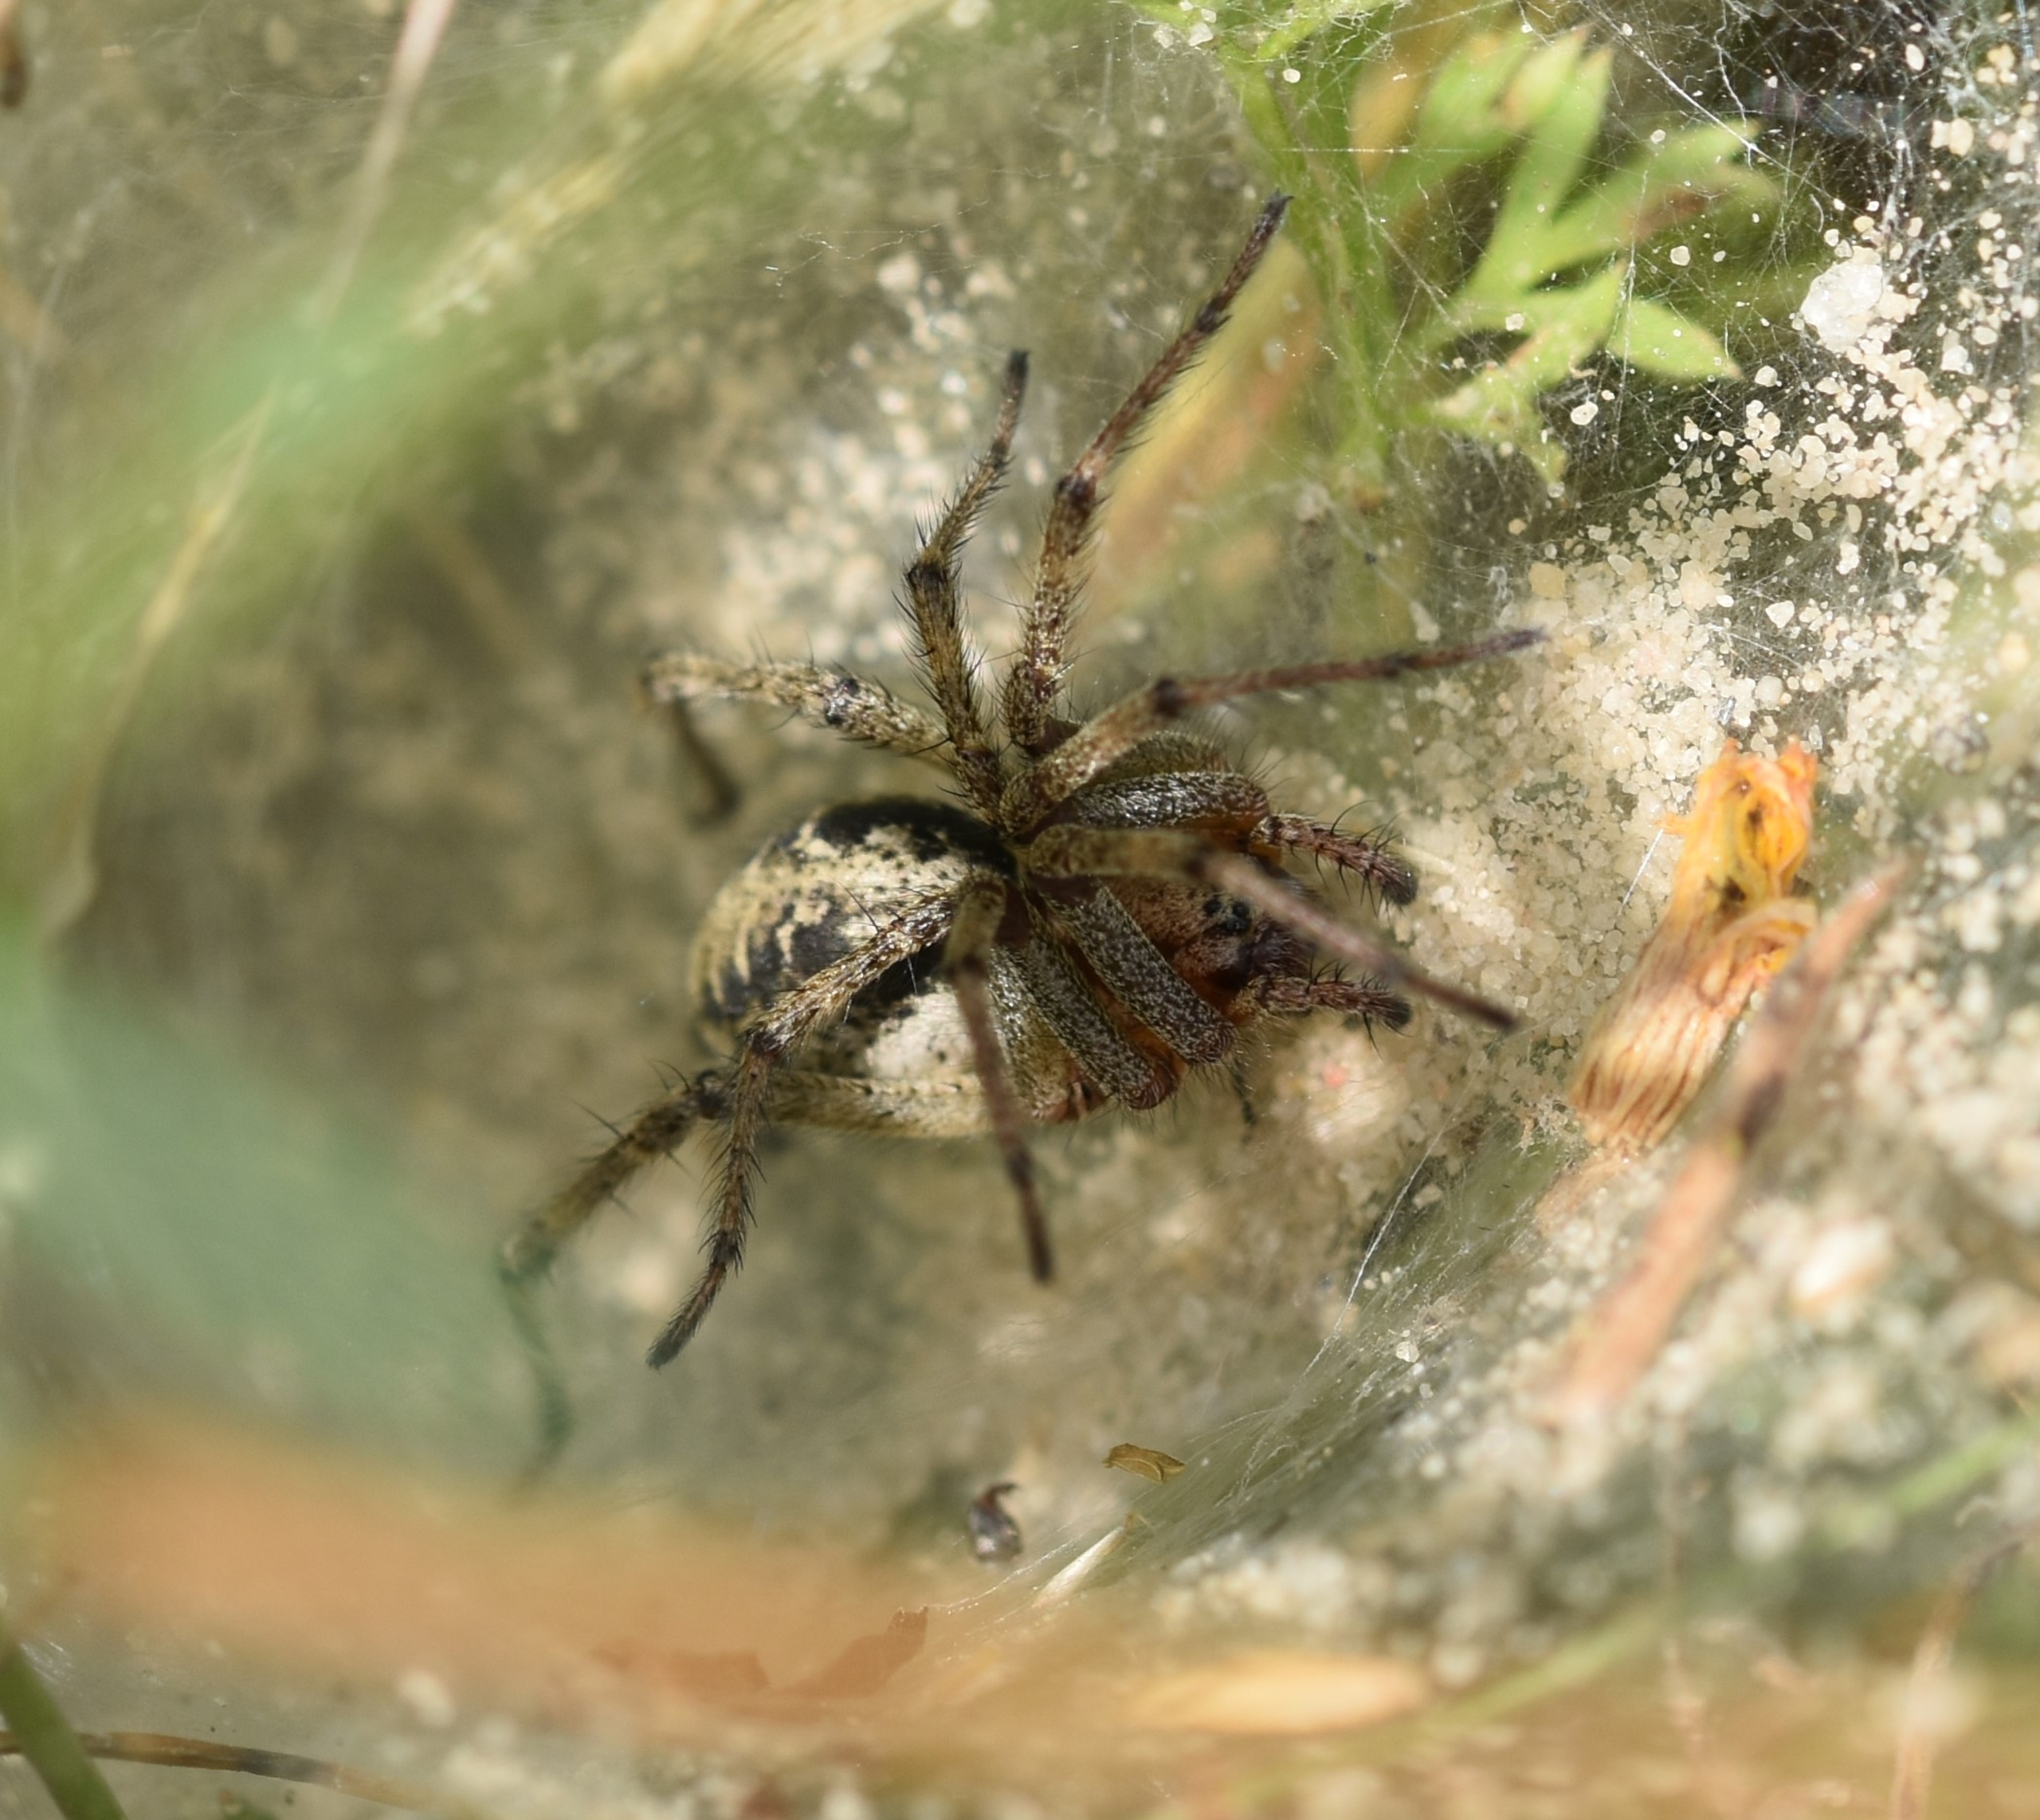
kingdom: Animalia
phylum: Arthropoda
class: Arachnida
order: Araneae
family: Agelenidae
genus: Agelena
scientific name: Agelena labyrinthica
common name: Labyrintedderkop
